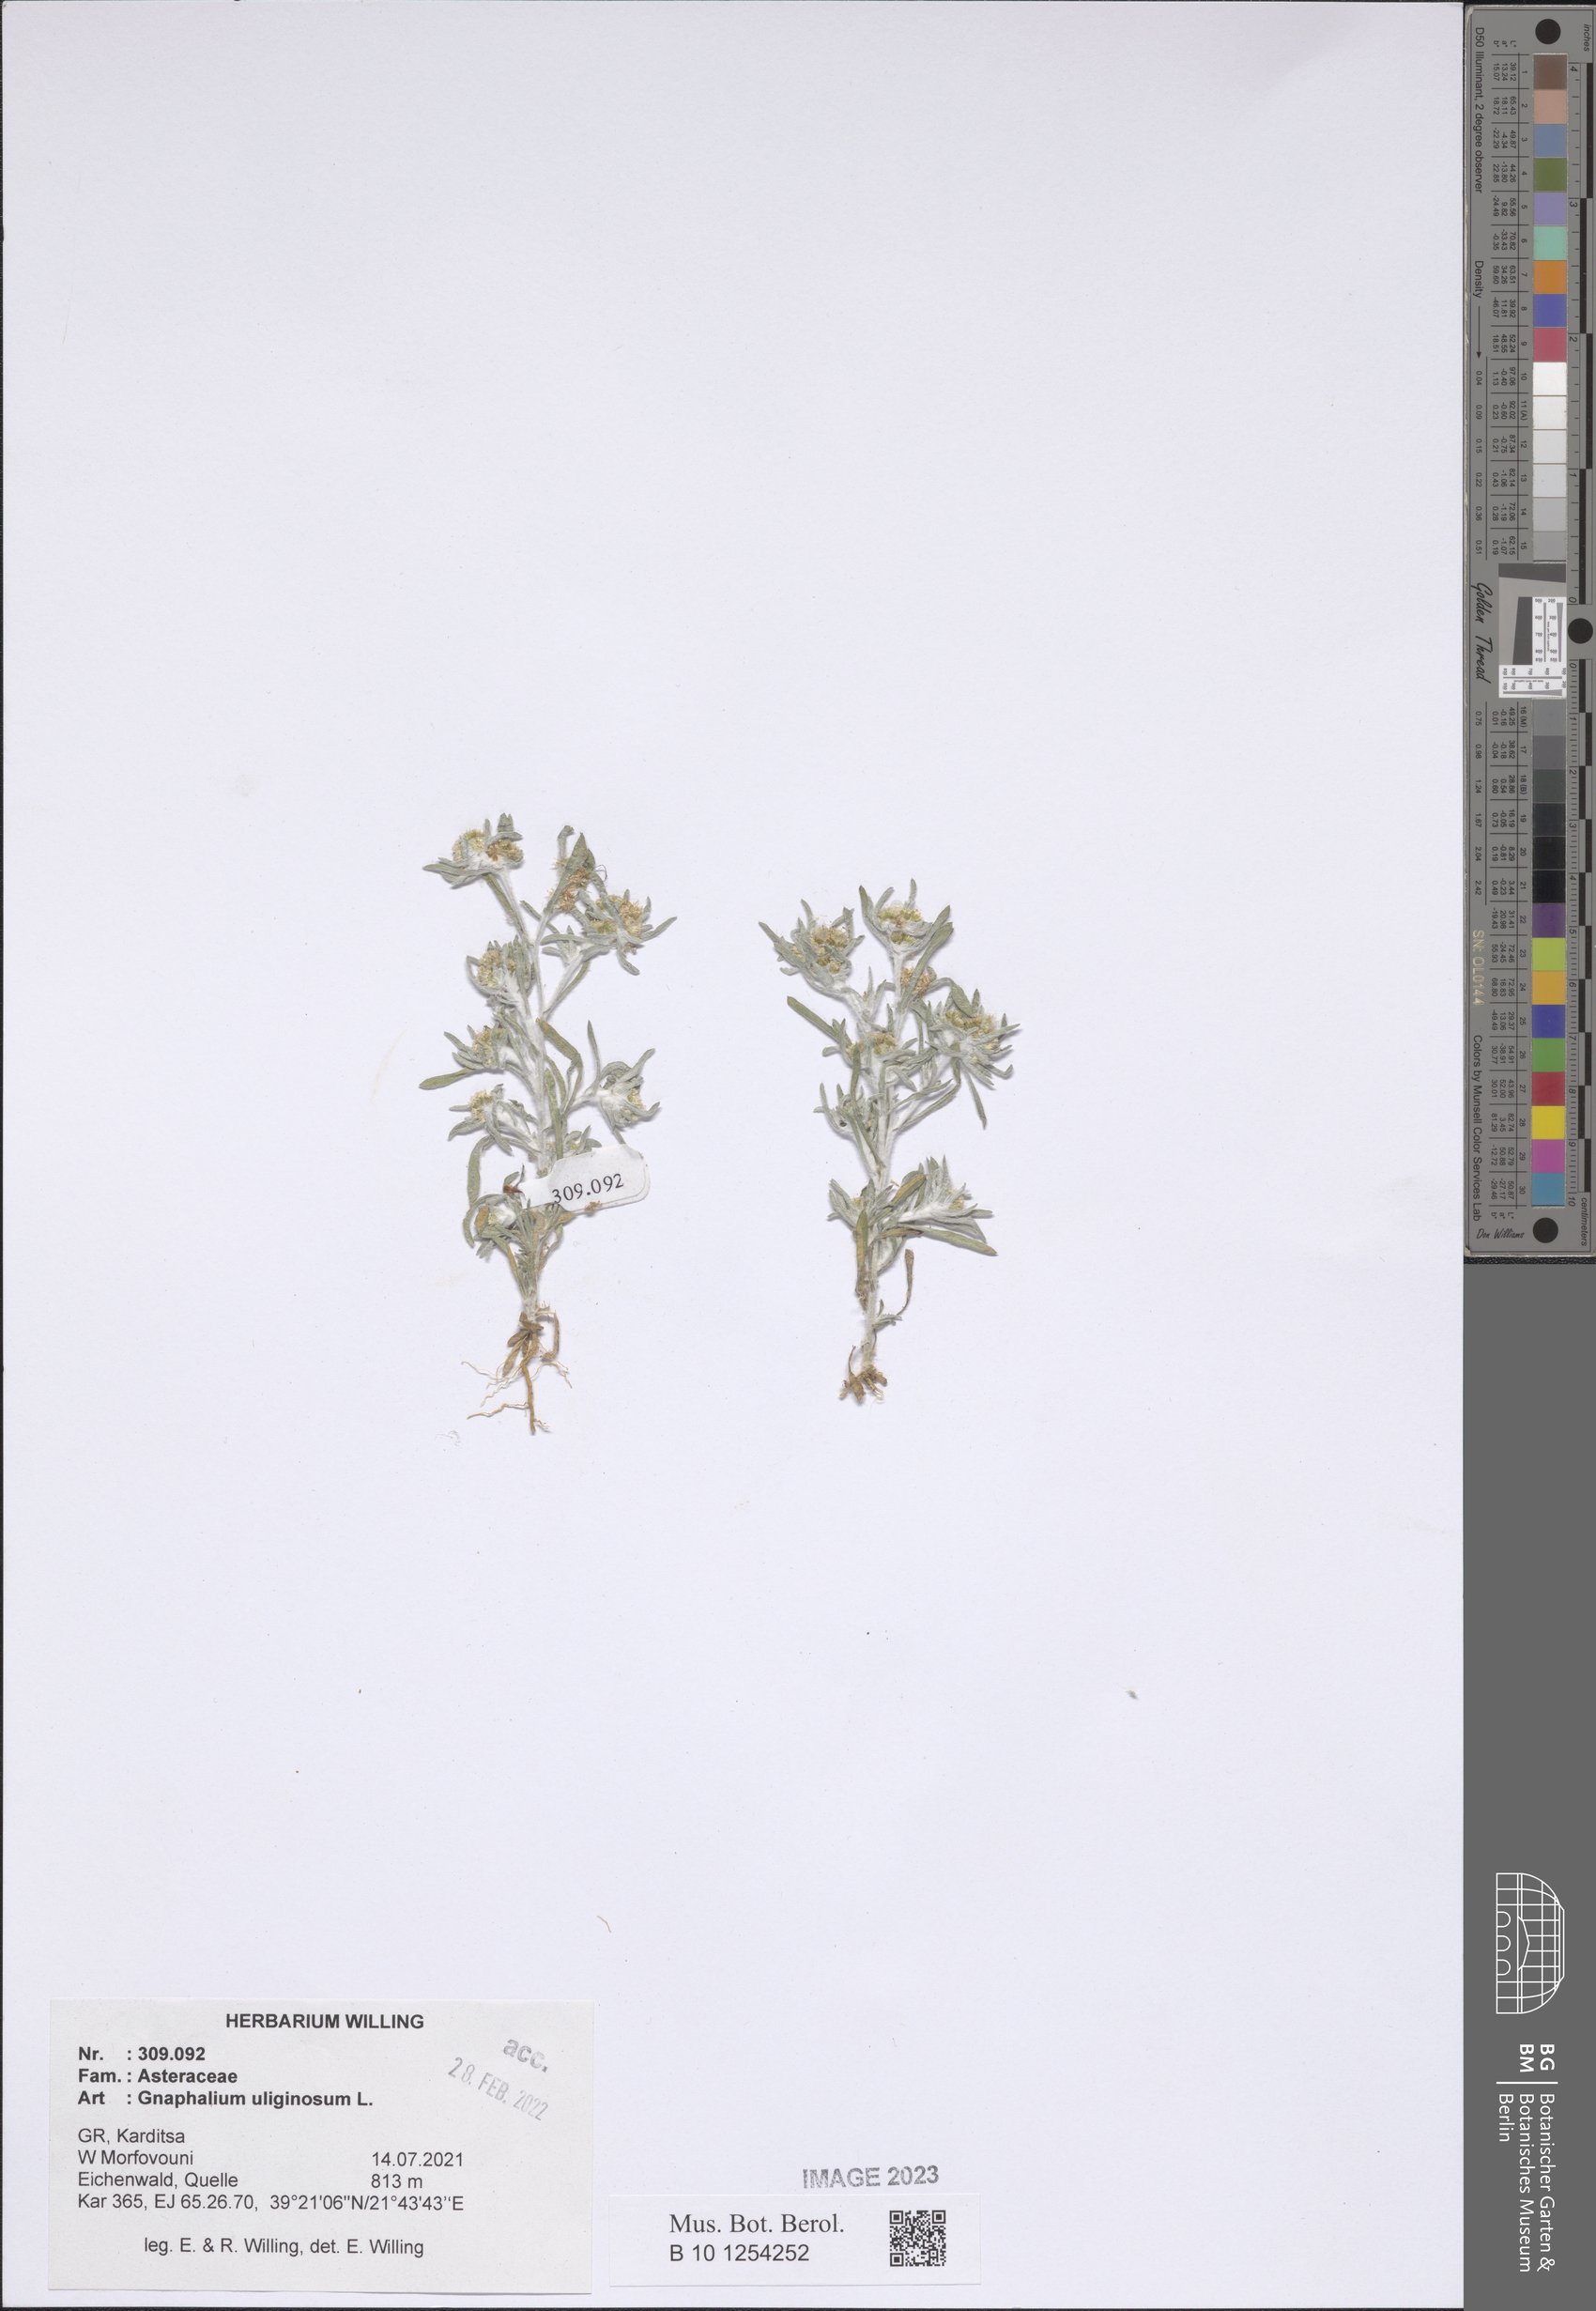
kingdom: Plantae
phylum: Tracheophyta
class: Magnoliopsida
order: Asterales
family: Asteraceae
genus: Gnaphalium
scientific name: Gnaphalium uliginosum
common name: Marsh cudweed
